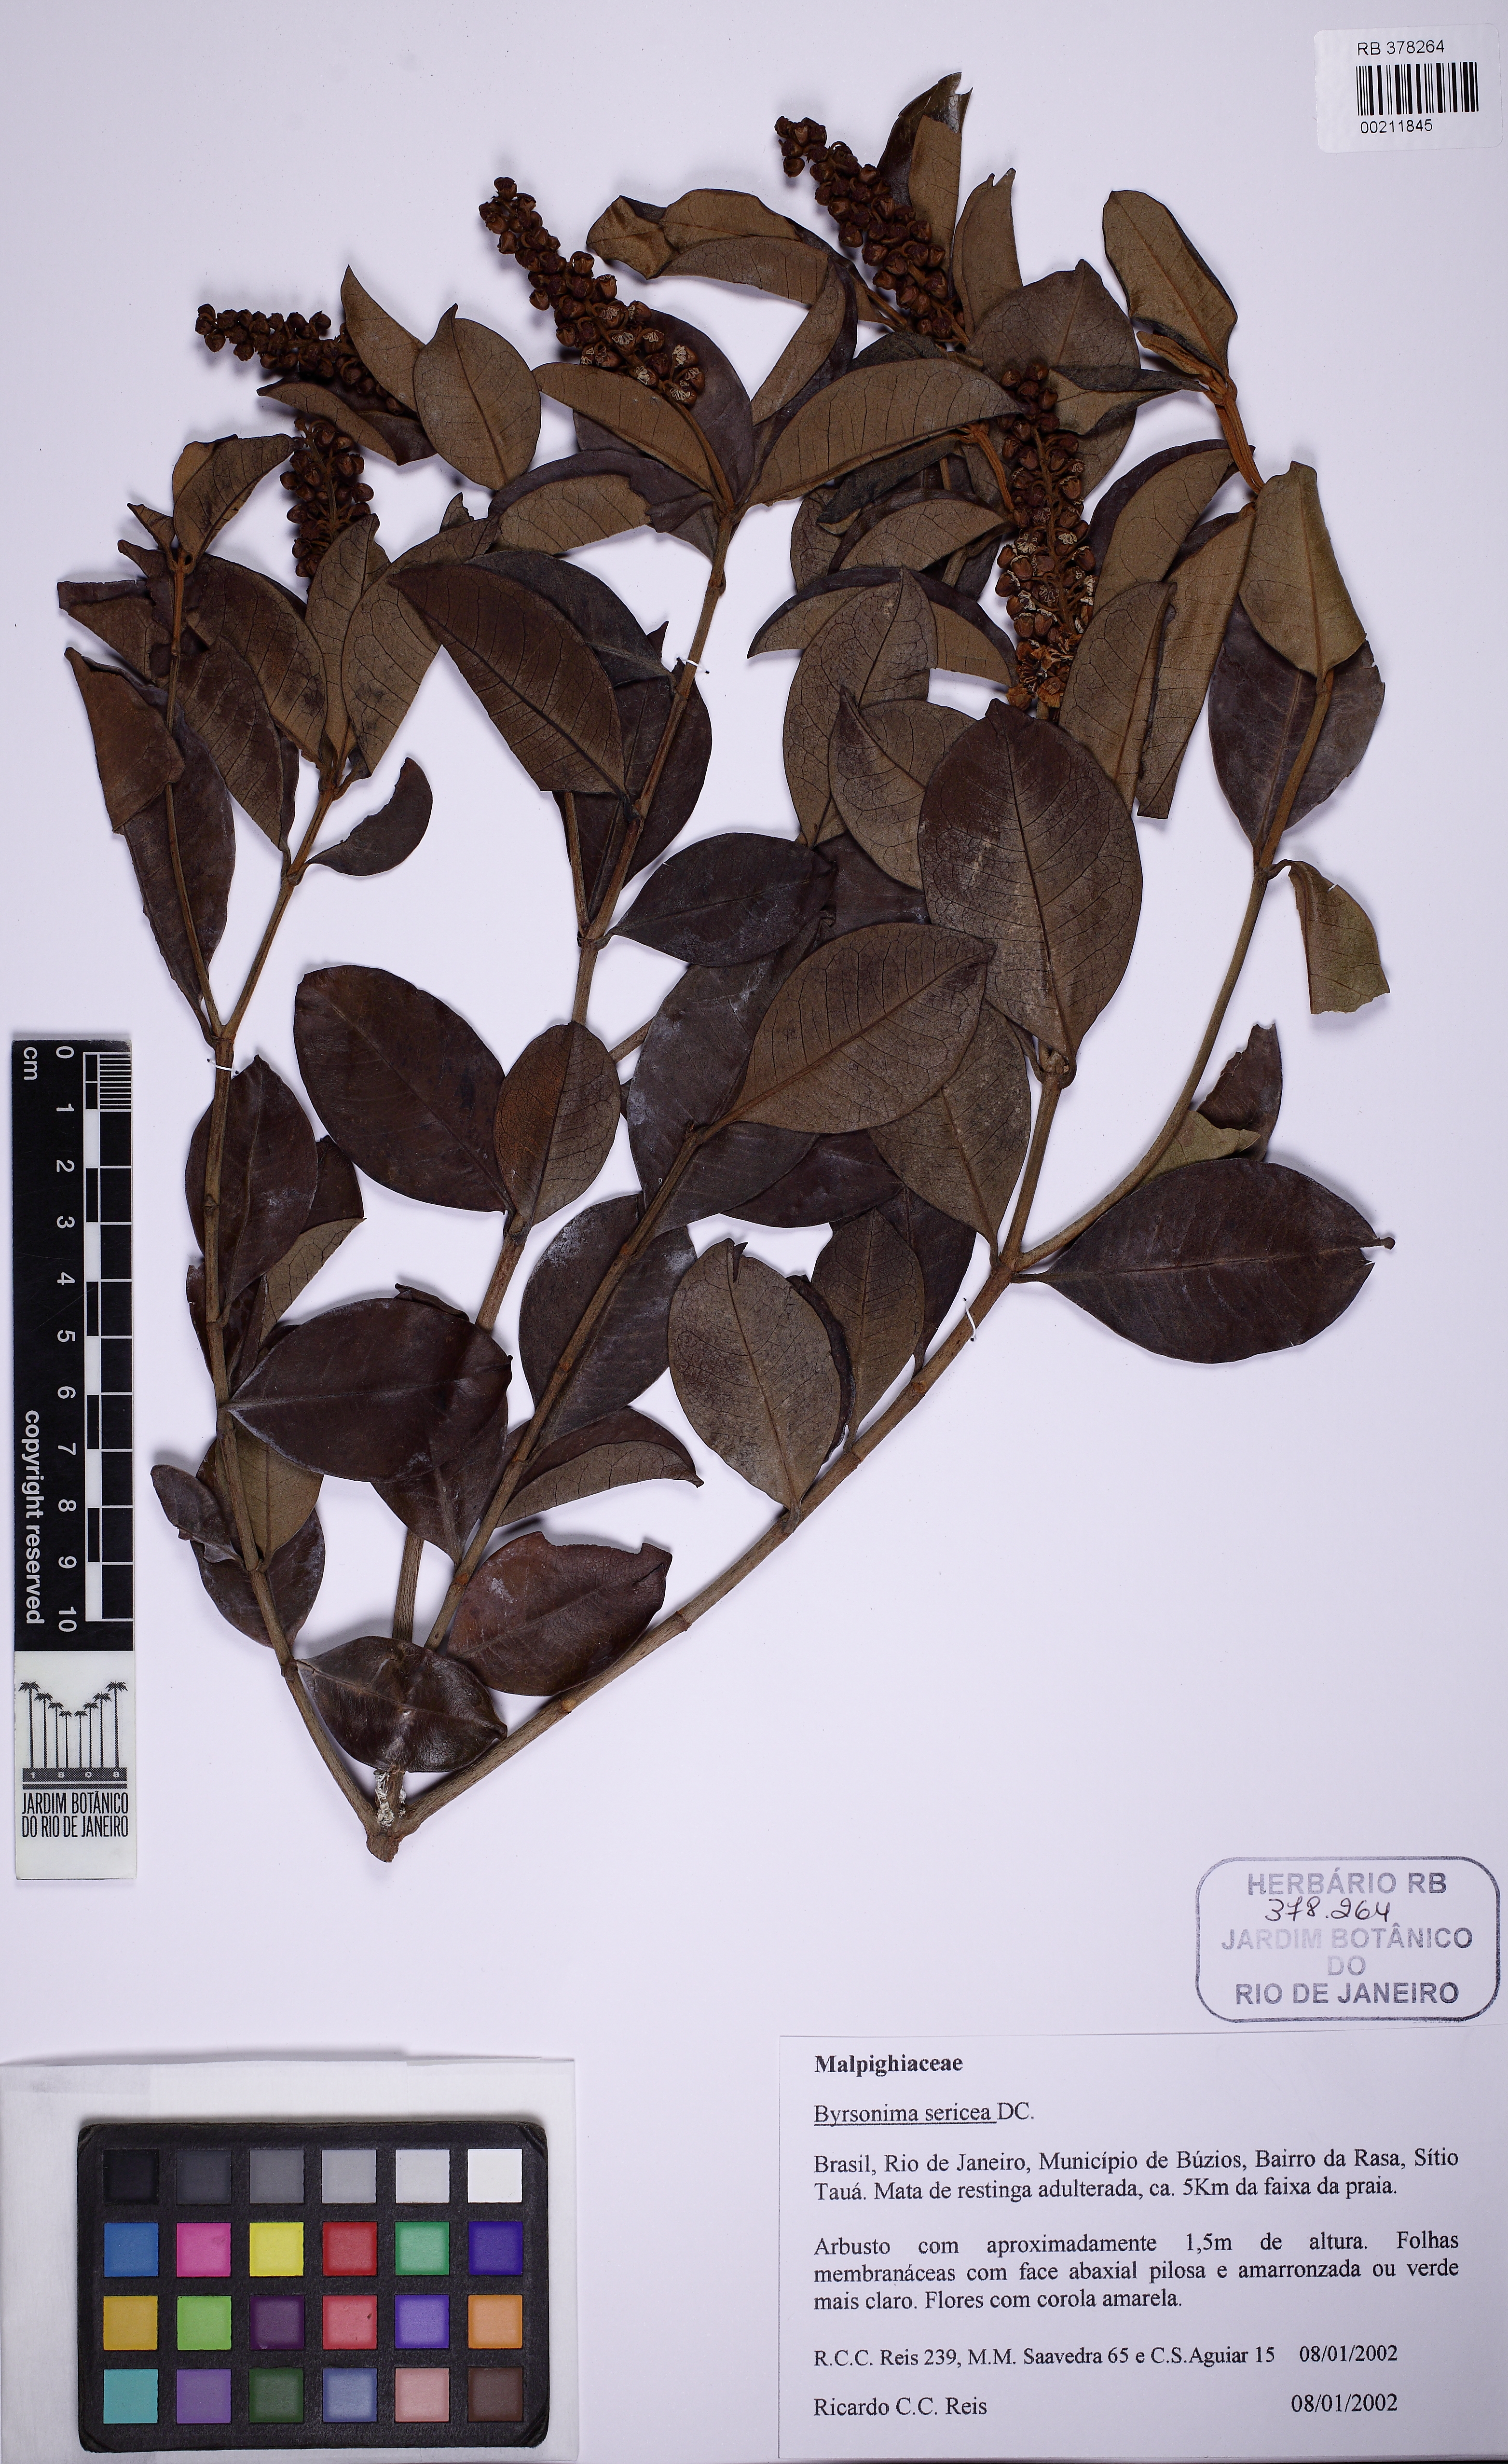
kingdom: Plantae
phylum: Tracheophyta
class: Magnoliopsida
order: Malpighiales
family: Malpighiaceae
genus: Byrsonima
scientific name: Byrsonima sericea
